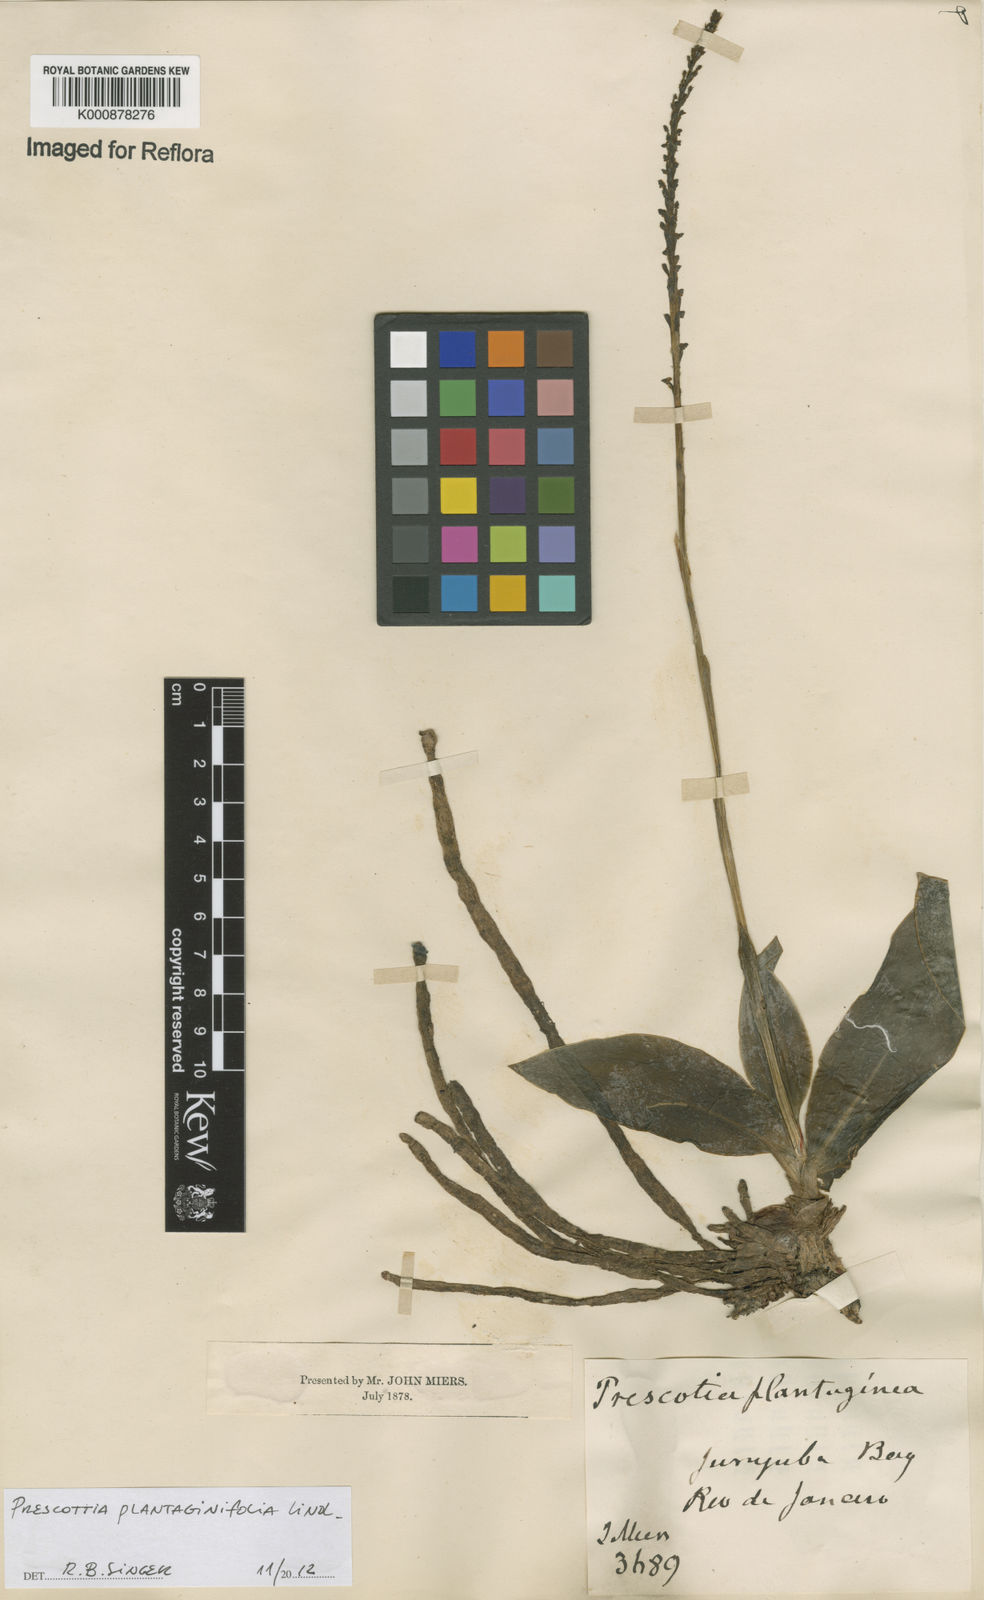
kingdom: Plantae
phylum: Tracheophyta
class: Liliopsida
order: Asparagales
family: Orchidaceae
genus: Prescottia
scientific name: Prescottia plantaginifolia
